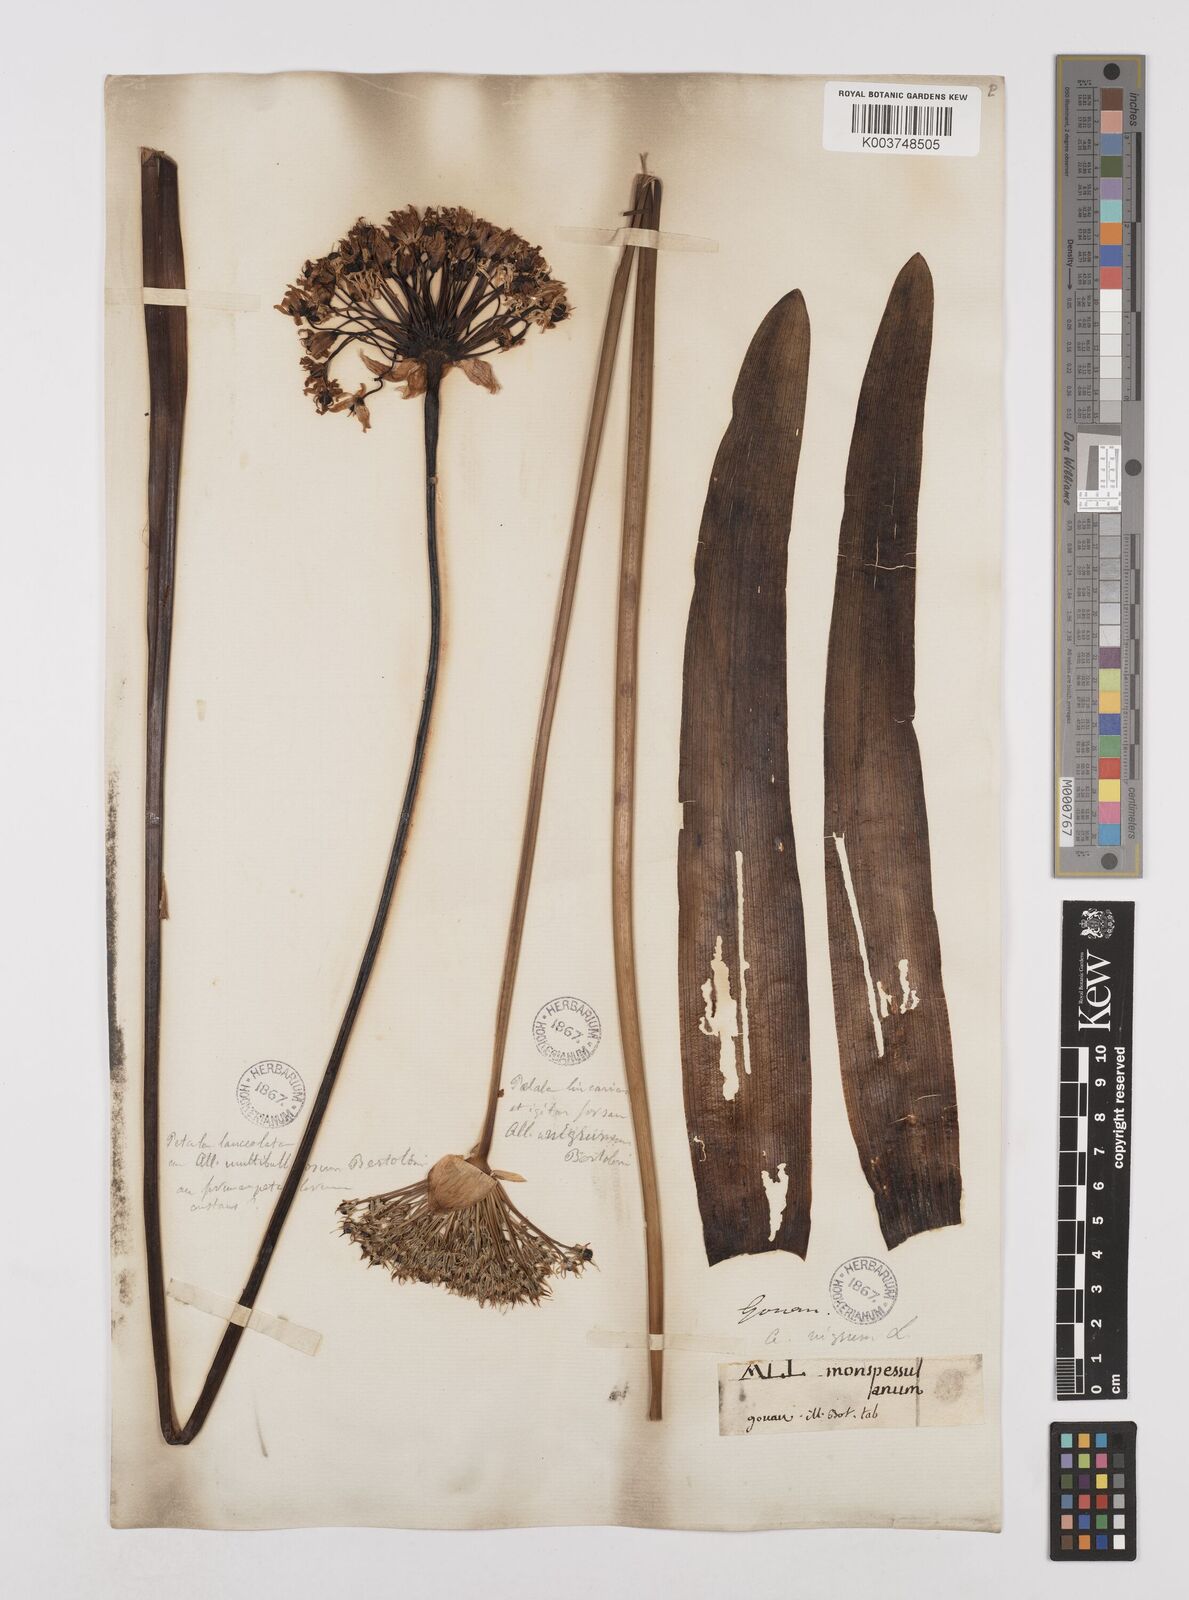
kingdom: Plantae
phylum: Tracheophyta
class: Liliopsida
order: Asparagales
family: Amaryllidaceae
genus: Allium
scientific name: Allium multibulbosum
